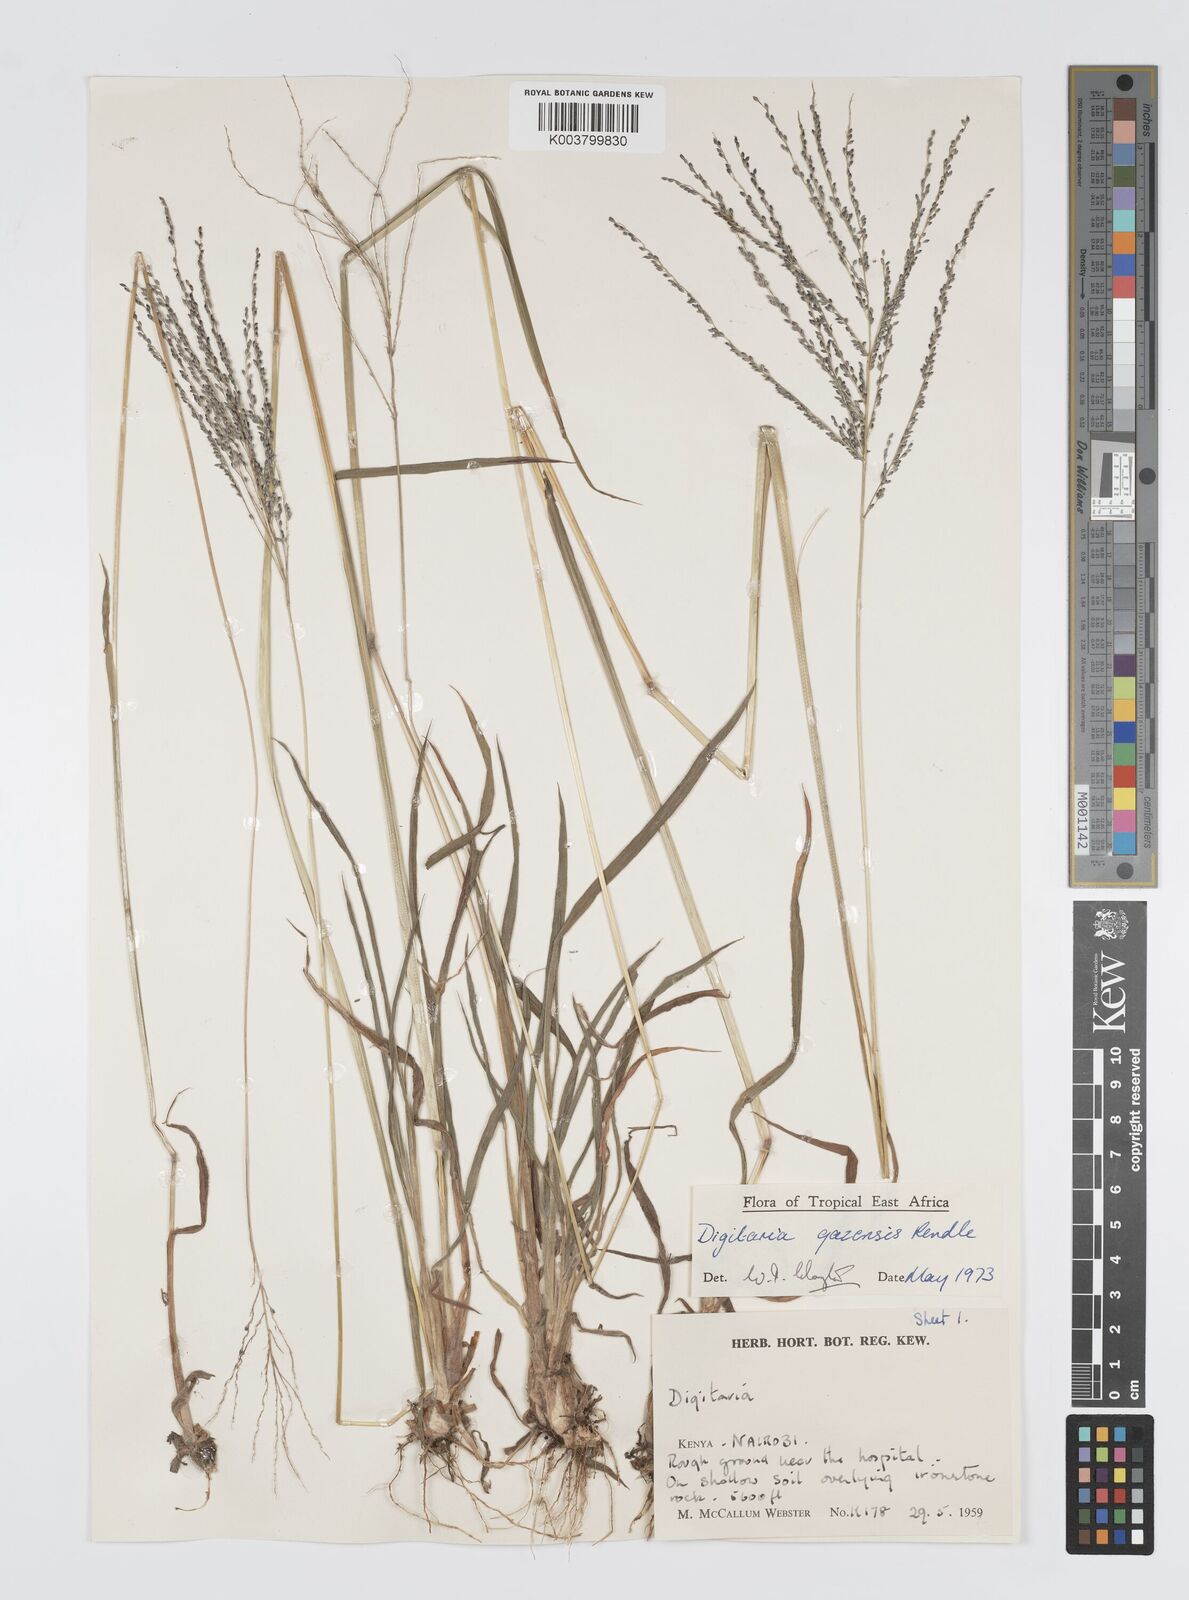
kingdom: Plantae
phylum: Tracheophyta
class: Liliopsida
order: Poales
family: Poaceae
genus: Digitaria
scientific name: Digitaria gazensis
